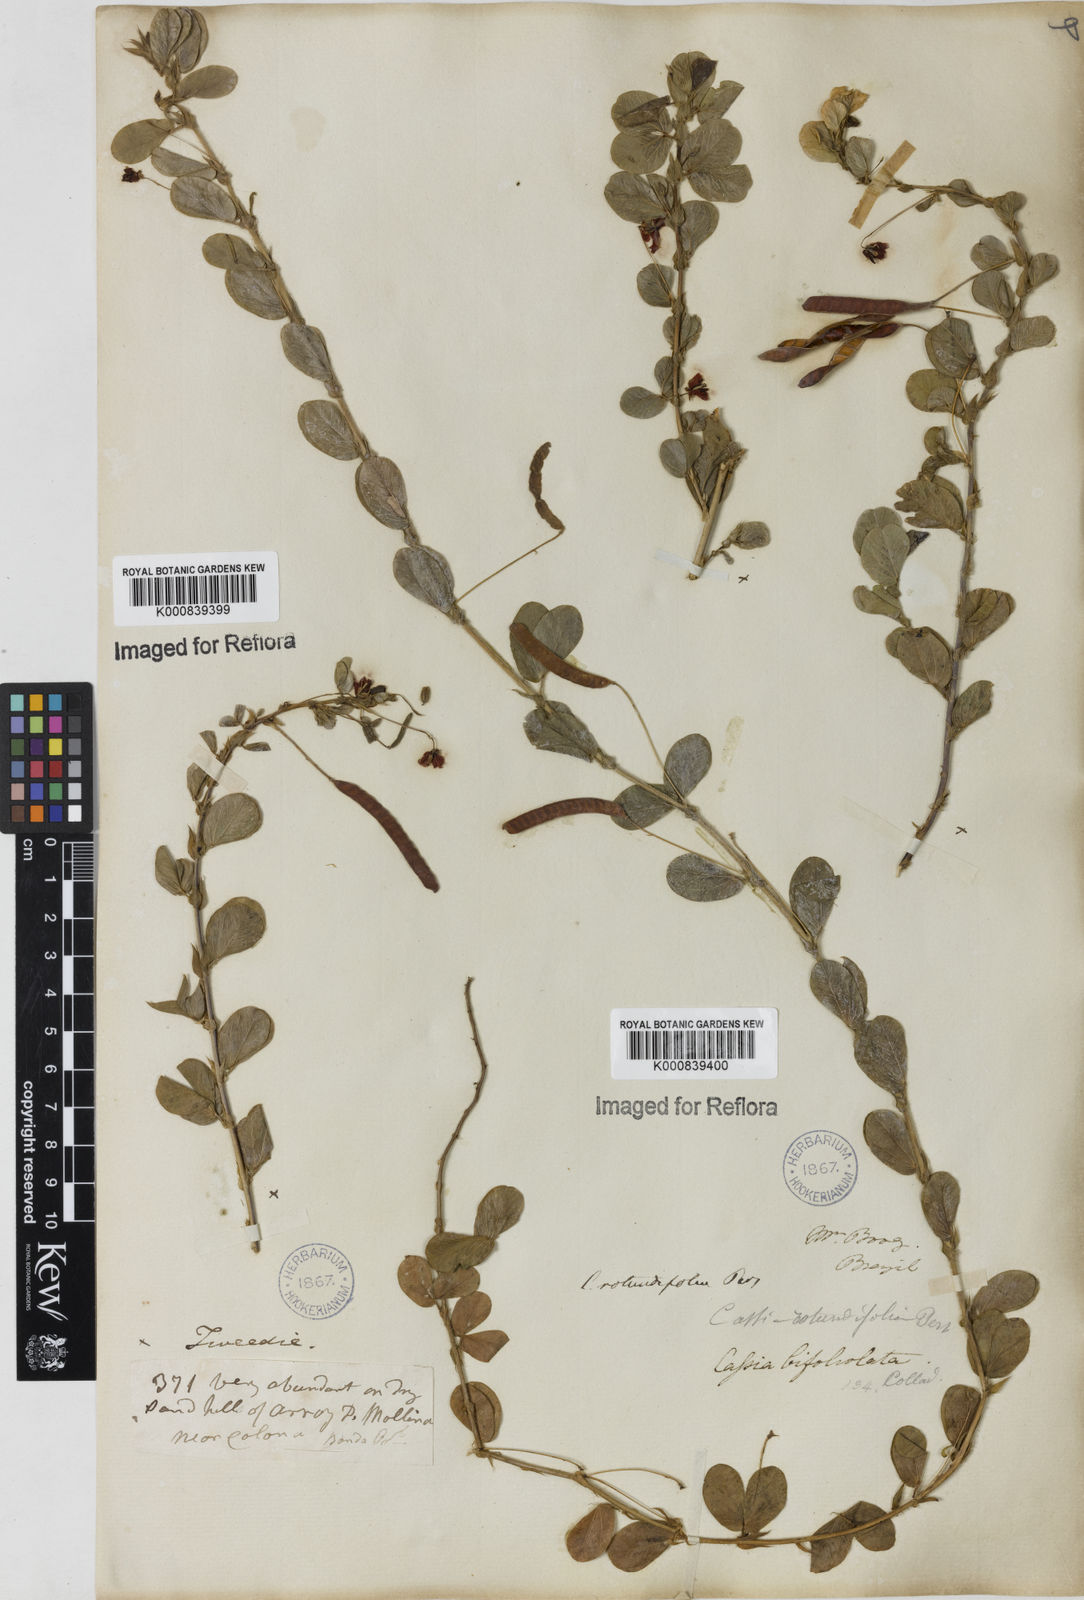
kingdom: Plantae
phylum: Tracheophyta
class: Magnoliopsida
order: Fabales
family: Fabaceae
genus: Chamaecrista
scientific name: Chamaecrista rotundifolia
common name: Round-leaf cassia
